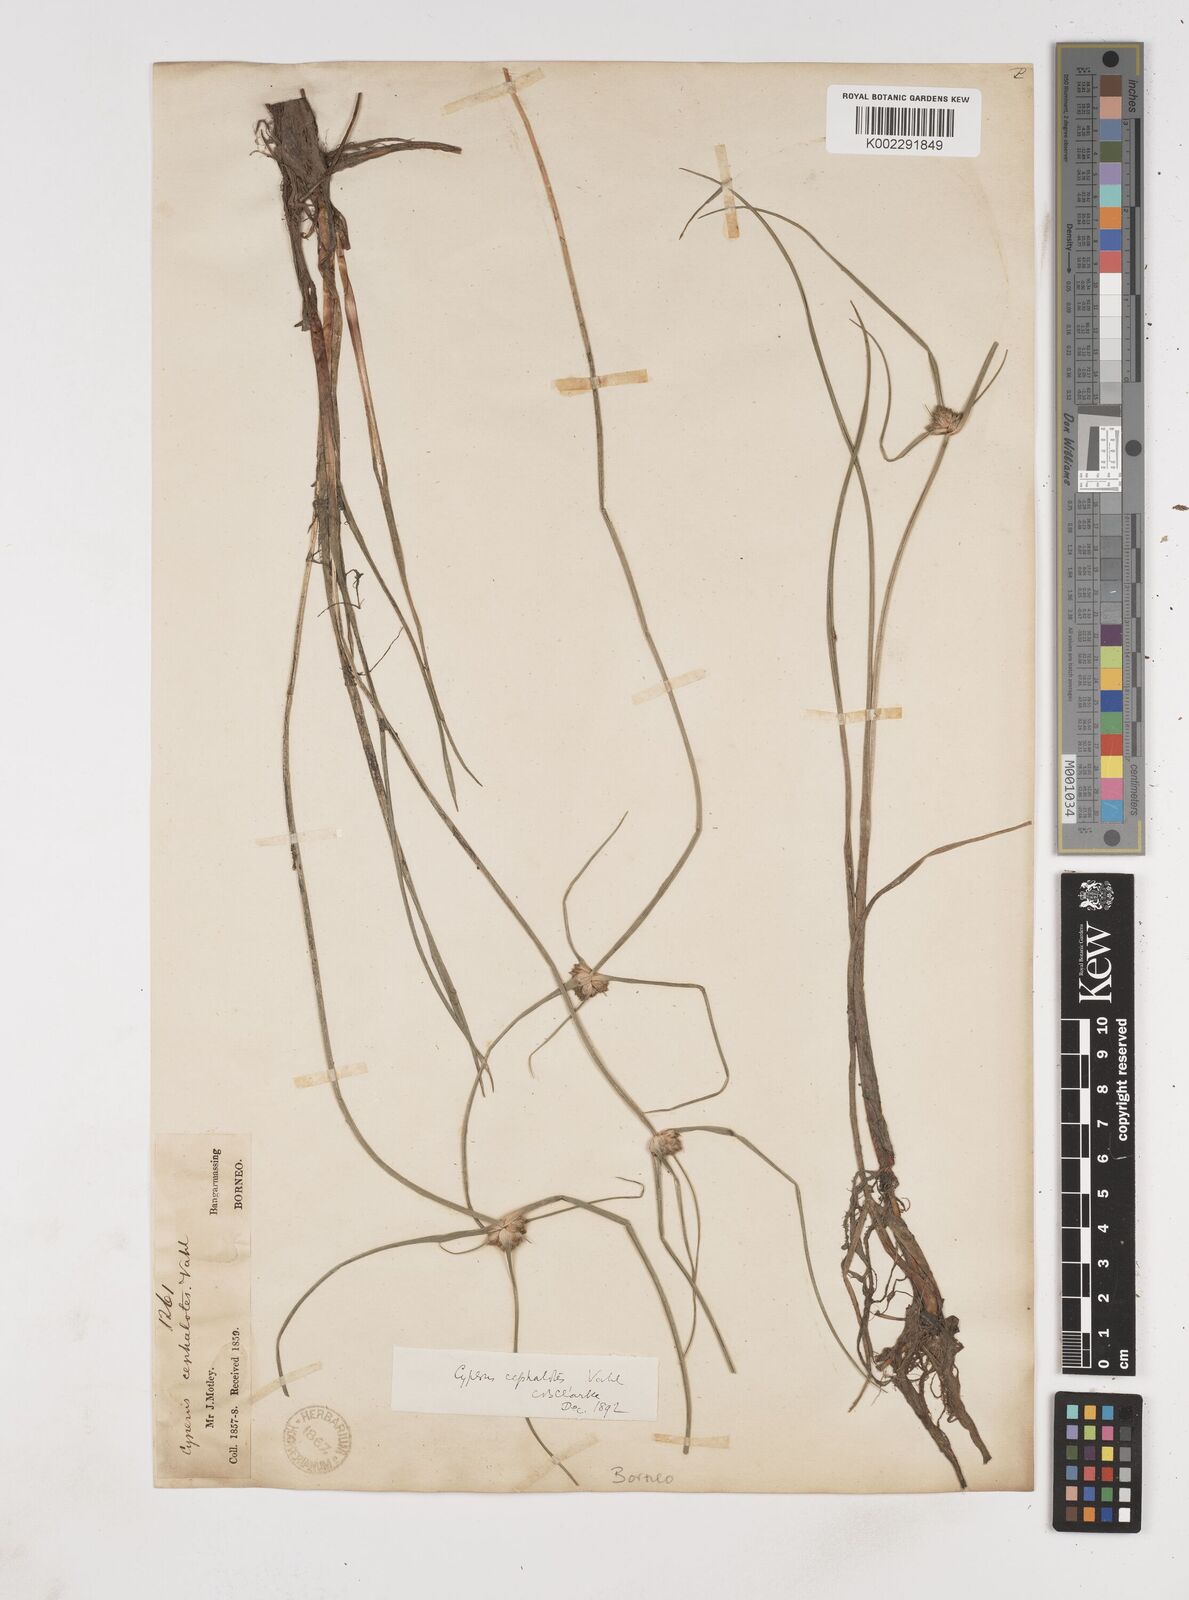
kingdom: Plantae
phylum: Tracheophyta
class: Liliopsida
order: Poales
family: Cyperaceae
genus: Cyperus
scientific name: Cyperus
